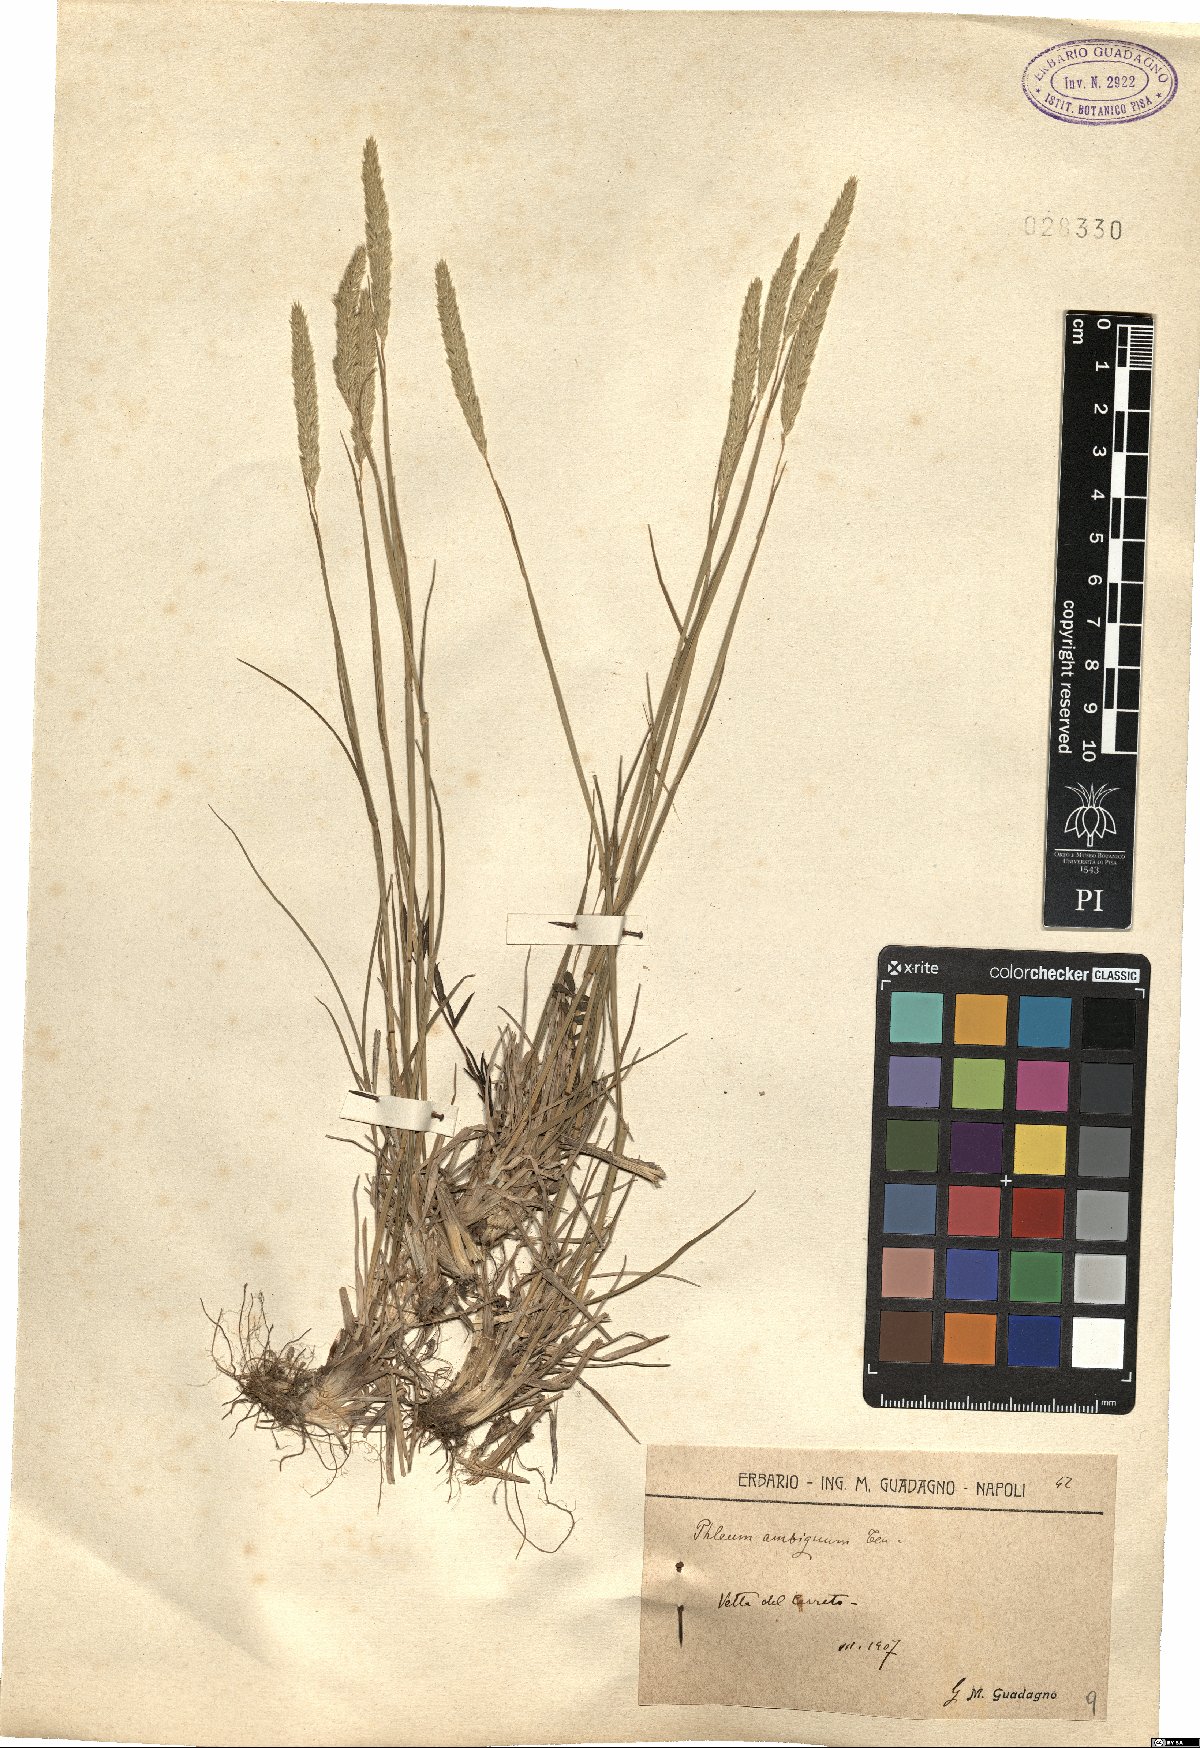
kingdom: Plantae
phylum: Tracheophyta
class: Liliopsida
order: Poales
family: Poaceae
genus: Phleum
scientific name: Phleum hirsutum
